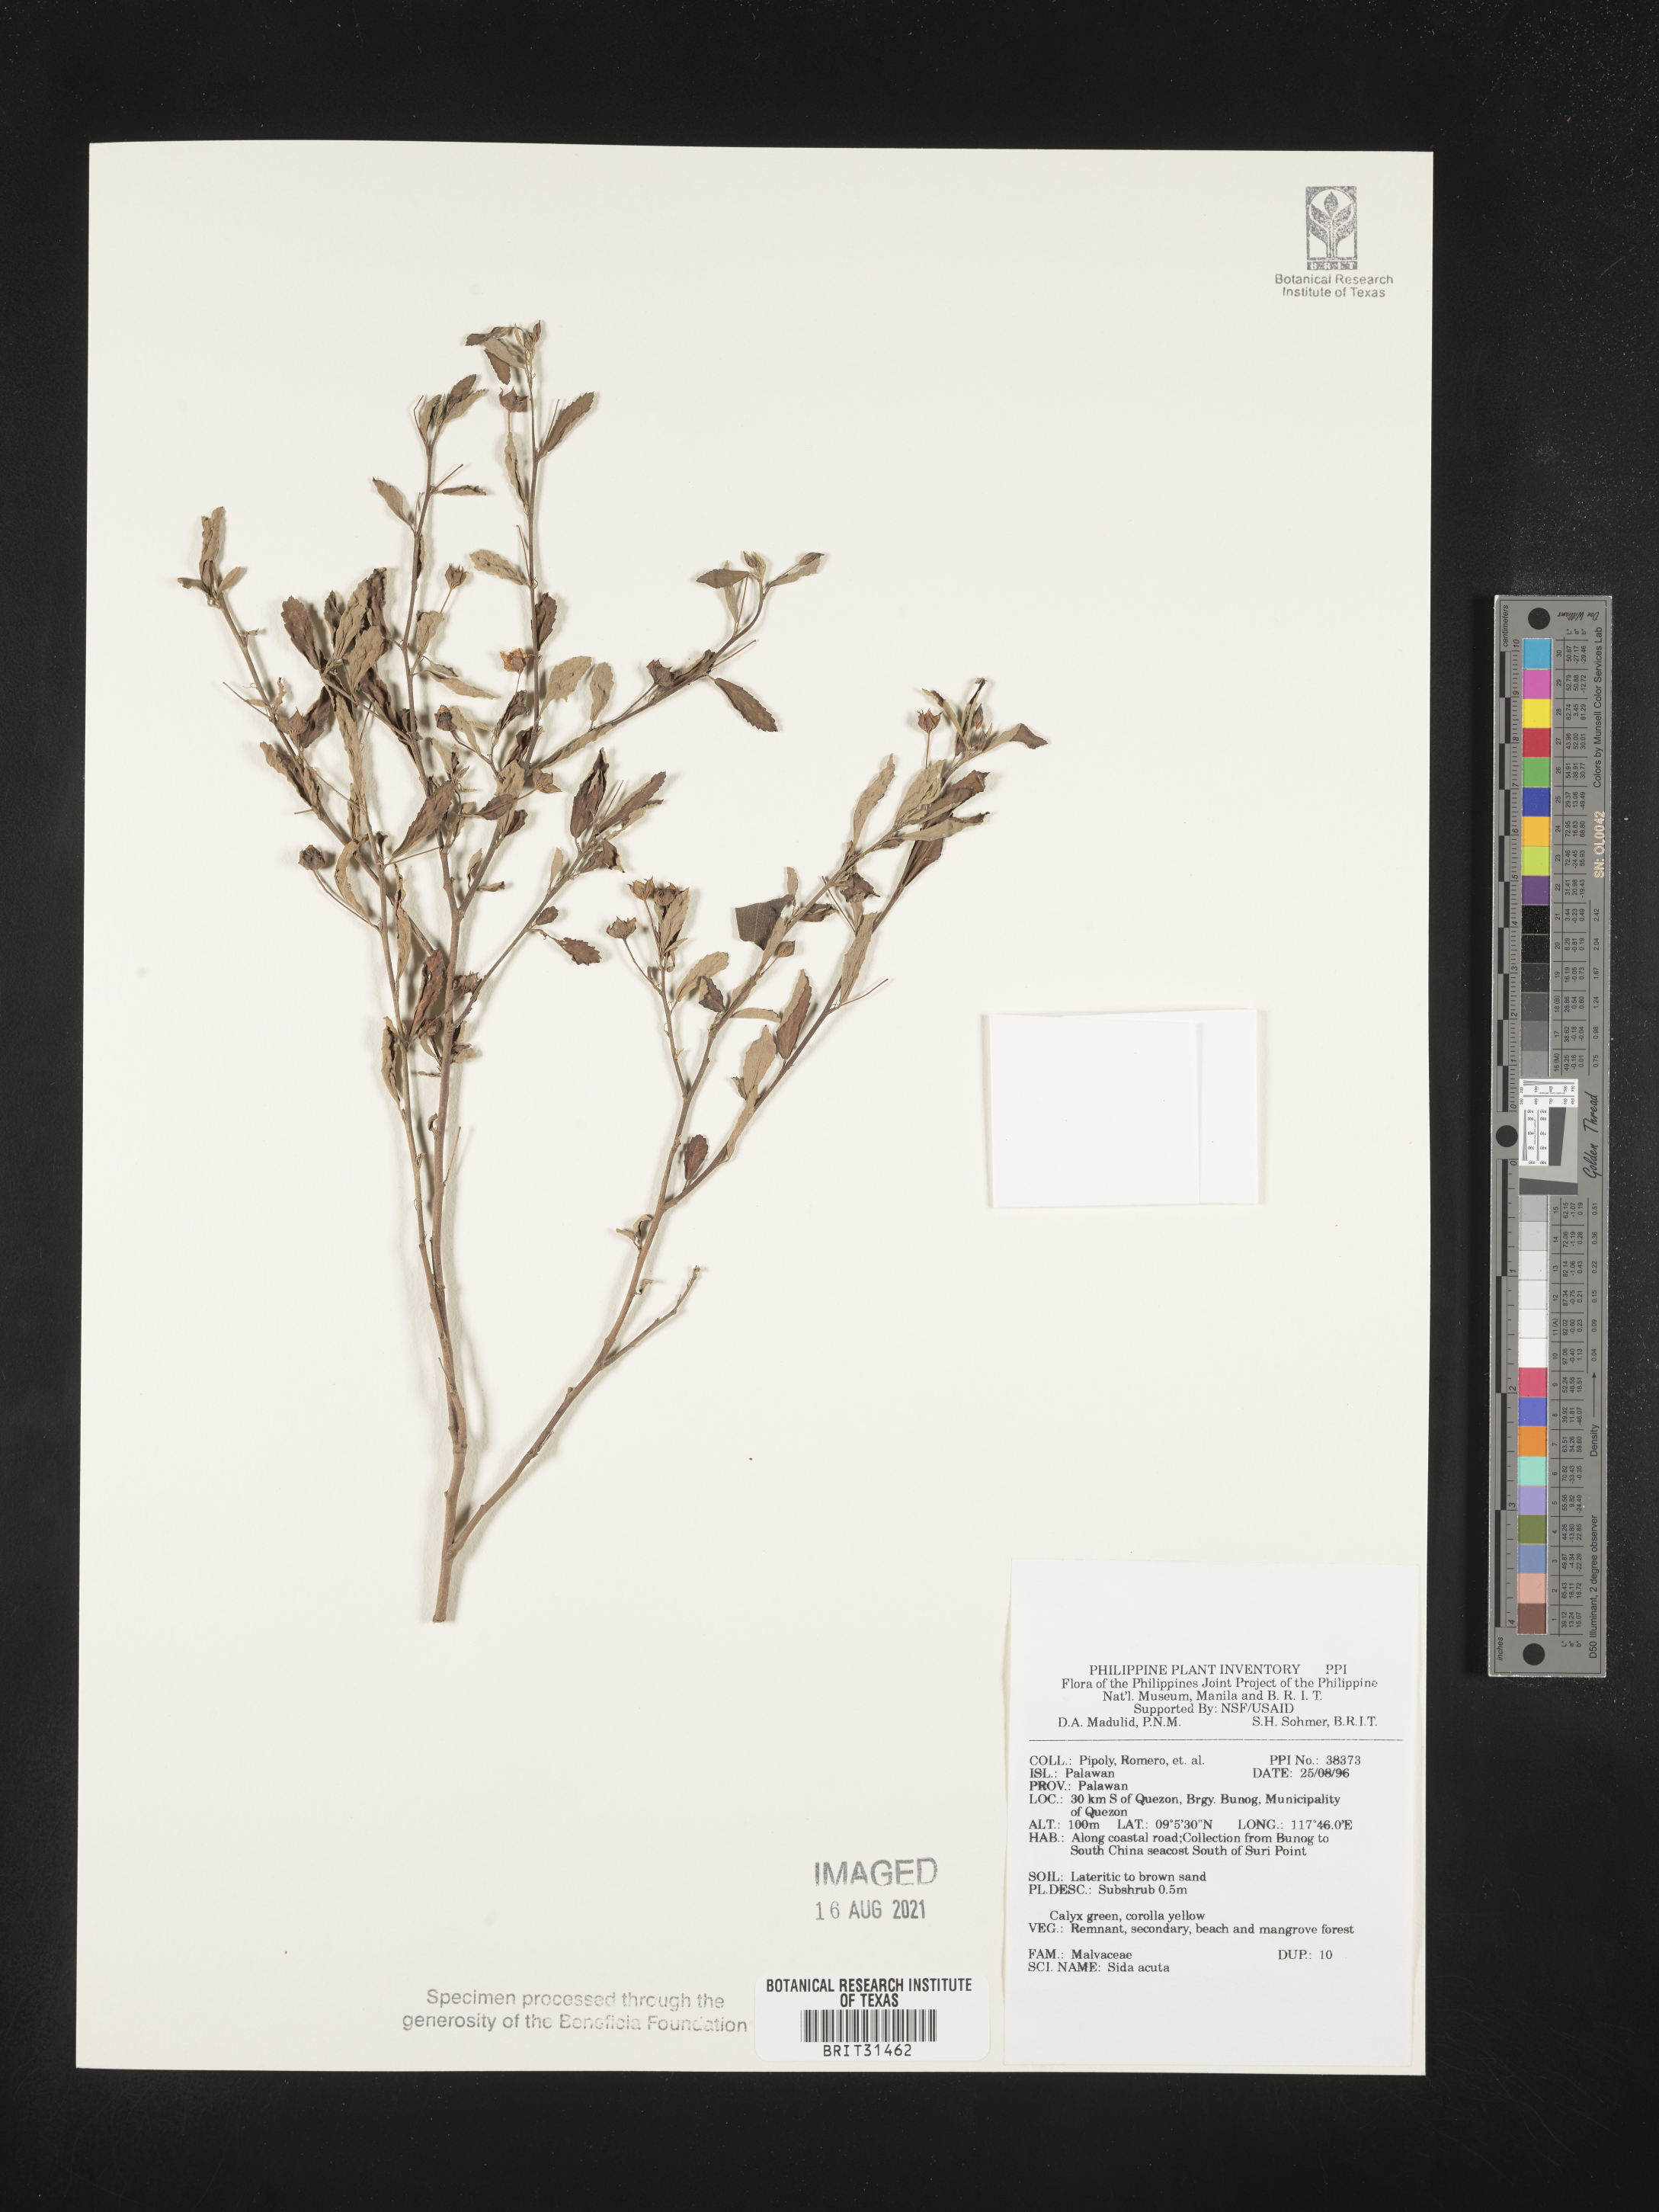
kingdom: Plantae
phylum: Tracheophyta
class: Magnoliopsida
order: Malvales
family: Malvaceae
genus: Sida
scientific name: Sida acuta
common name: Common wireweed
